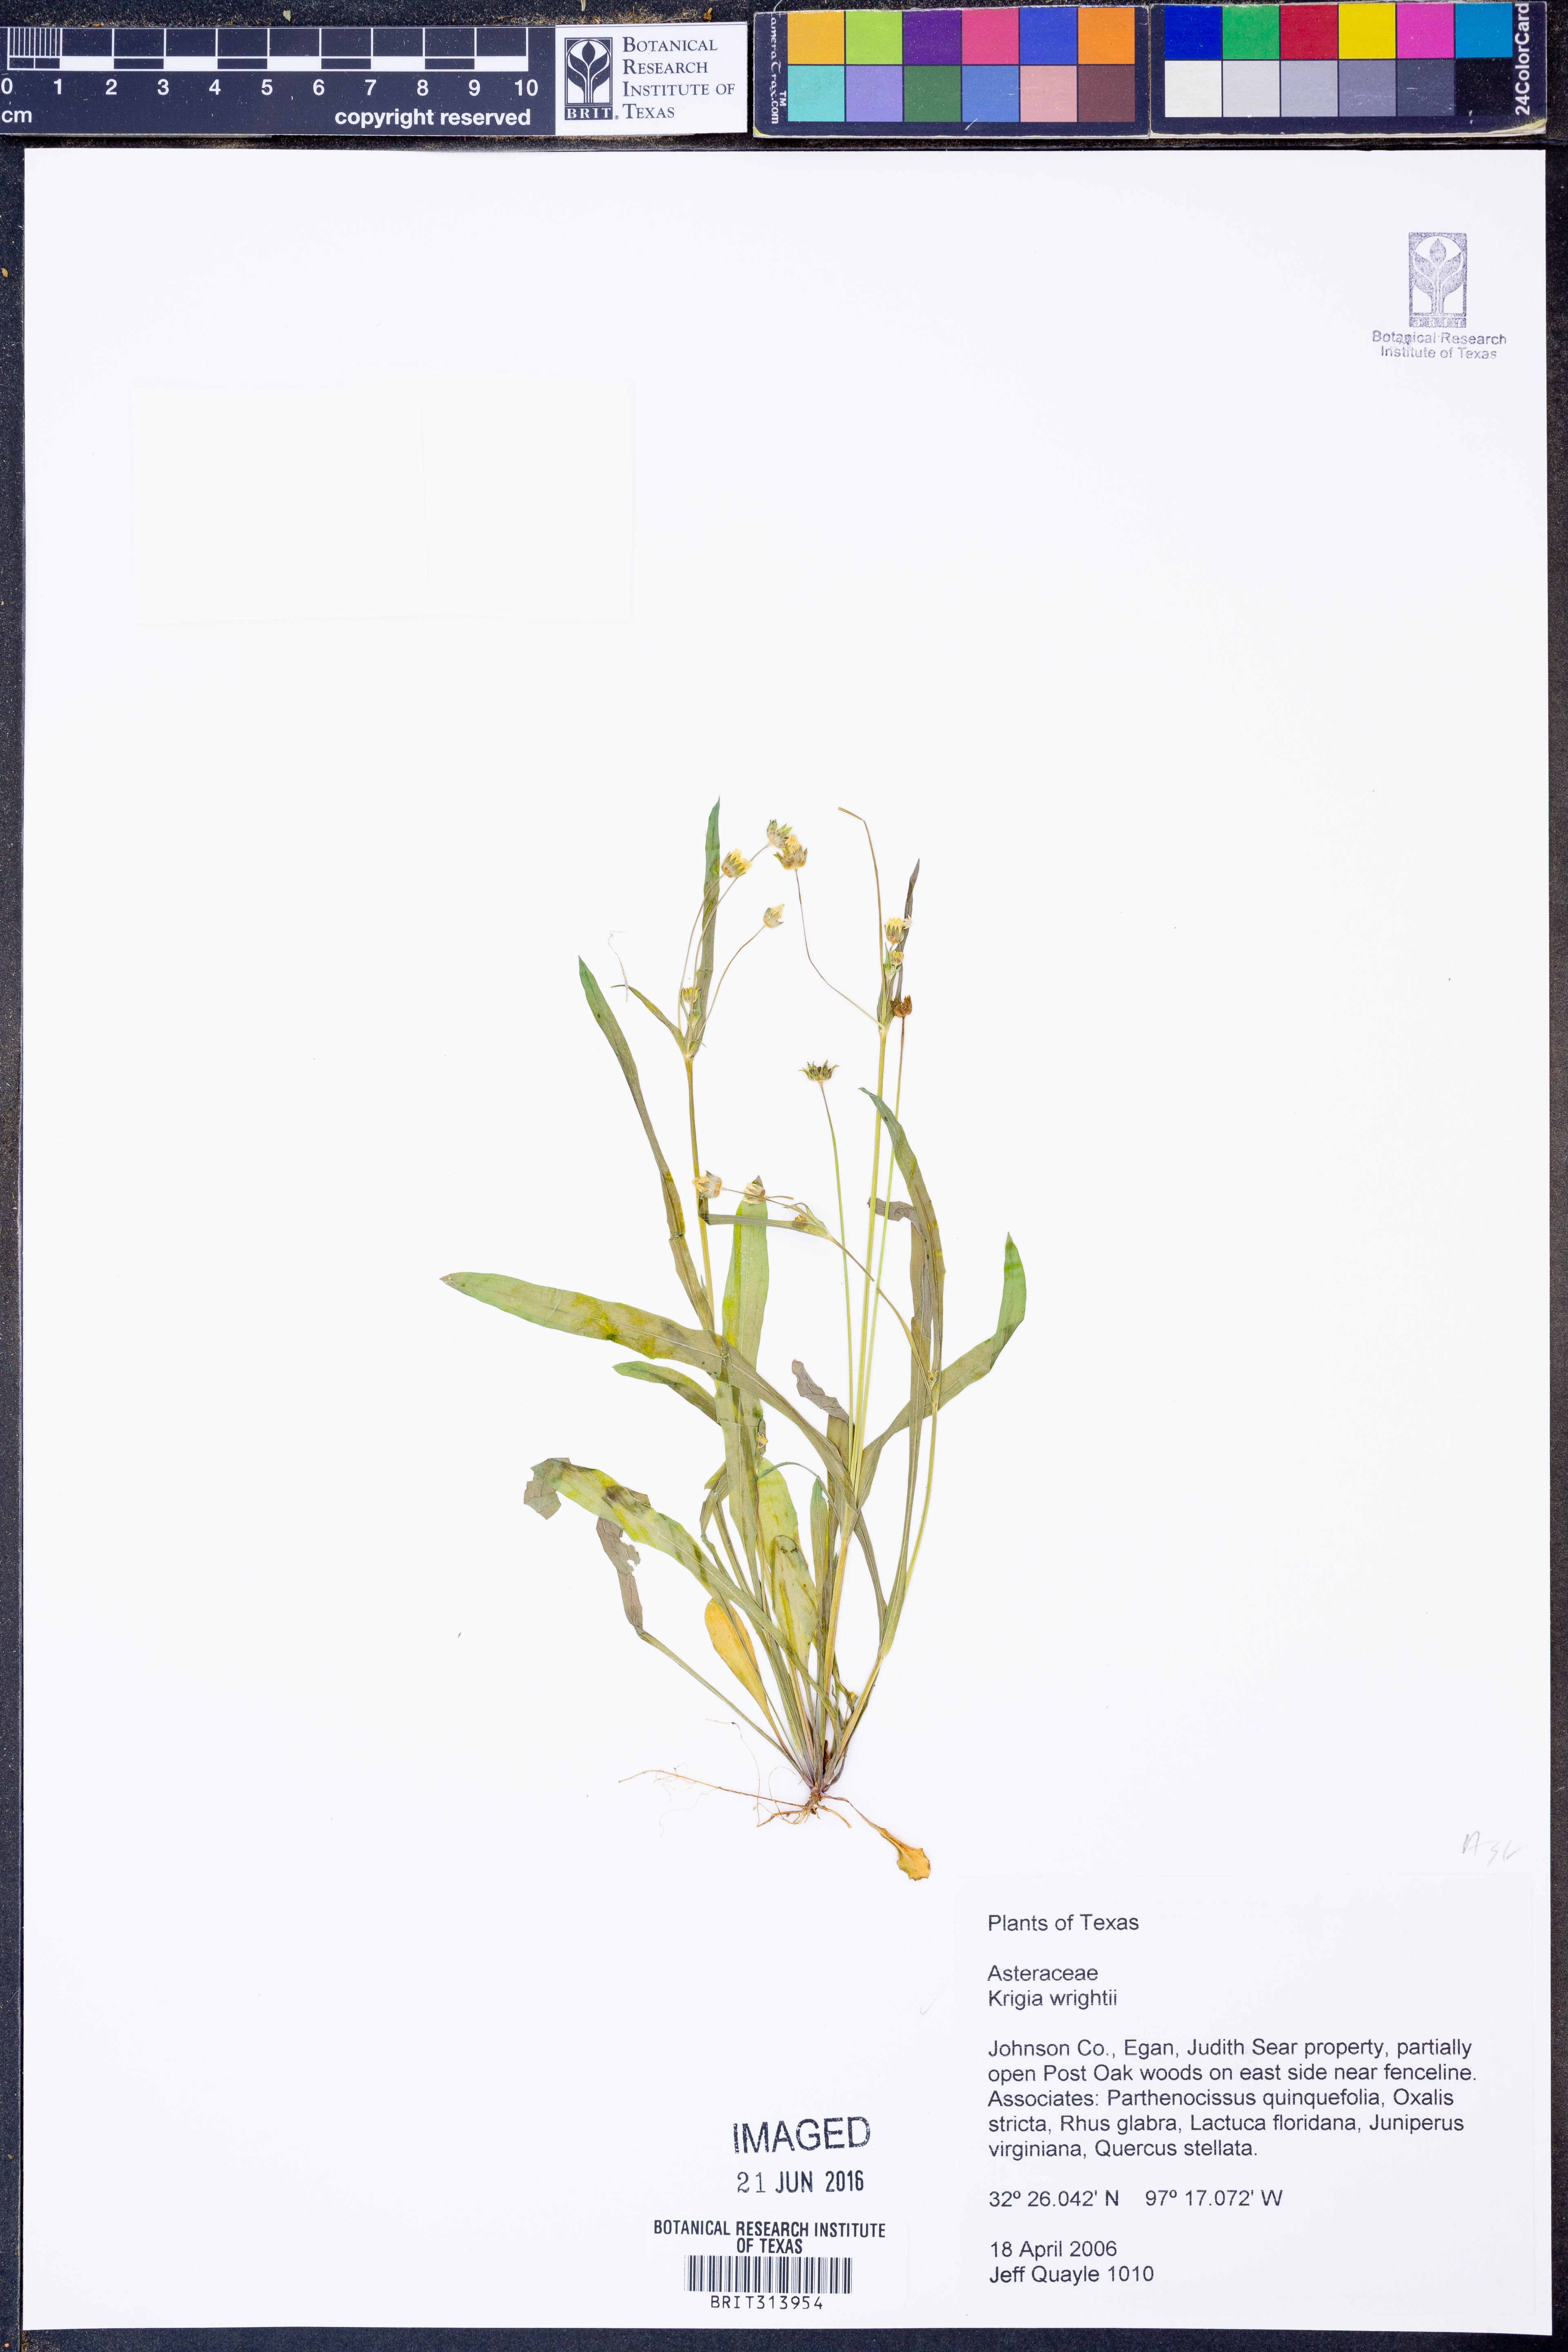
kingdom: Plantae
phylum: Tracheophyta
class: Magnoliopsida
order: Asterales
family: Asteraceae
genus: Krigia
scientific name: Krigia wrightii
